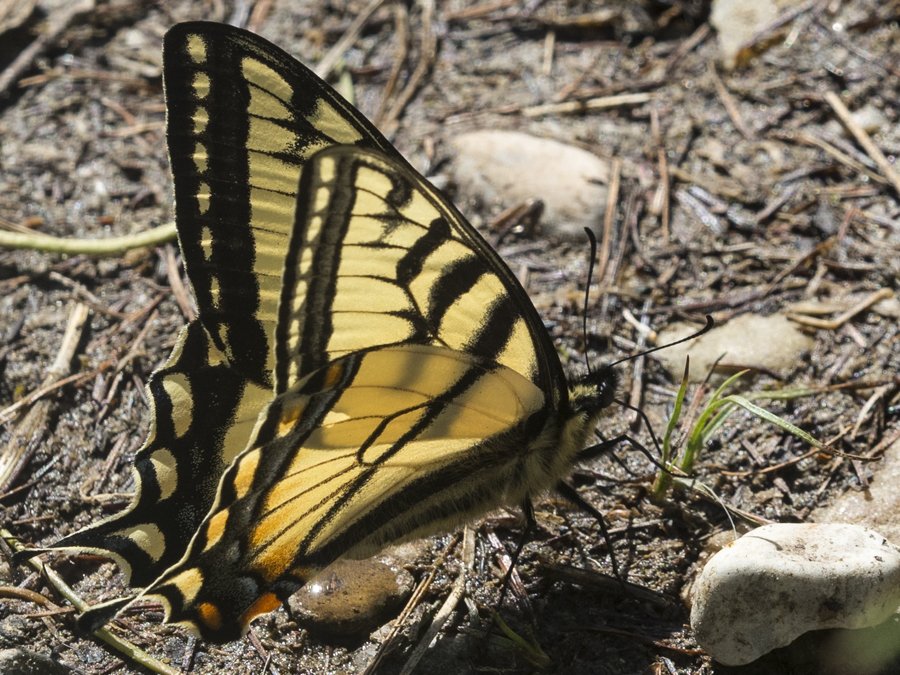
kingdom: Animalia
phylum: Arthropoda
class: Insecta
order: Lepidoptera
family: Papilionidae
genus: Pterourus
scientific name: Pterourus canadensis
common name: Canadian Tiger Swallowtail
